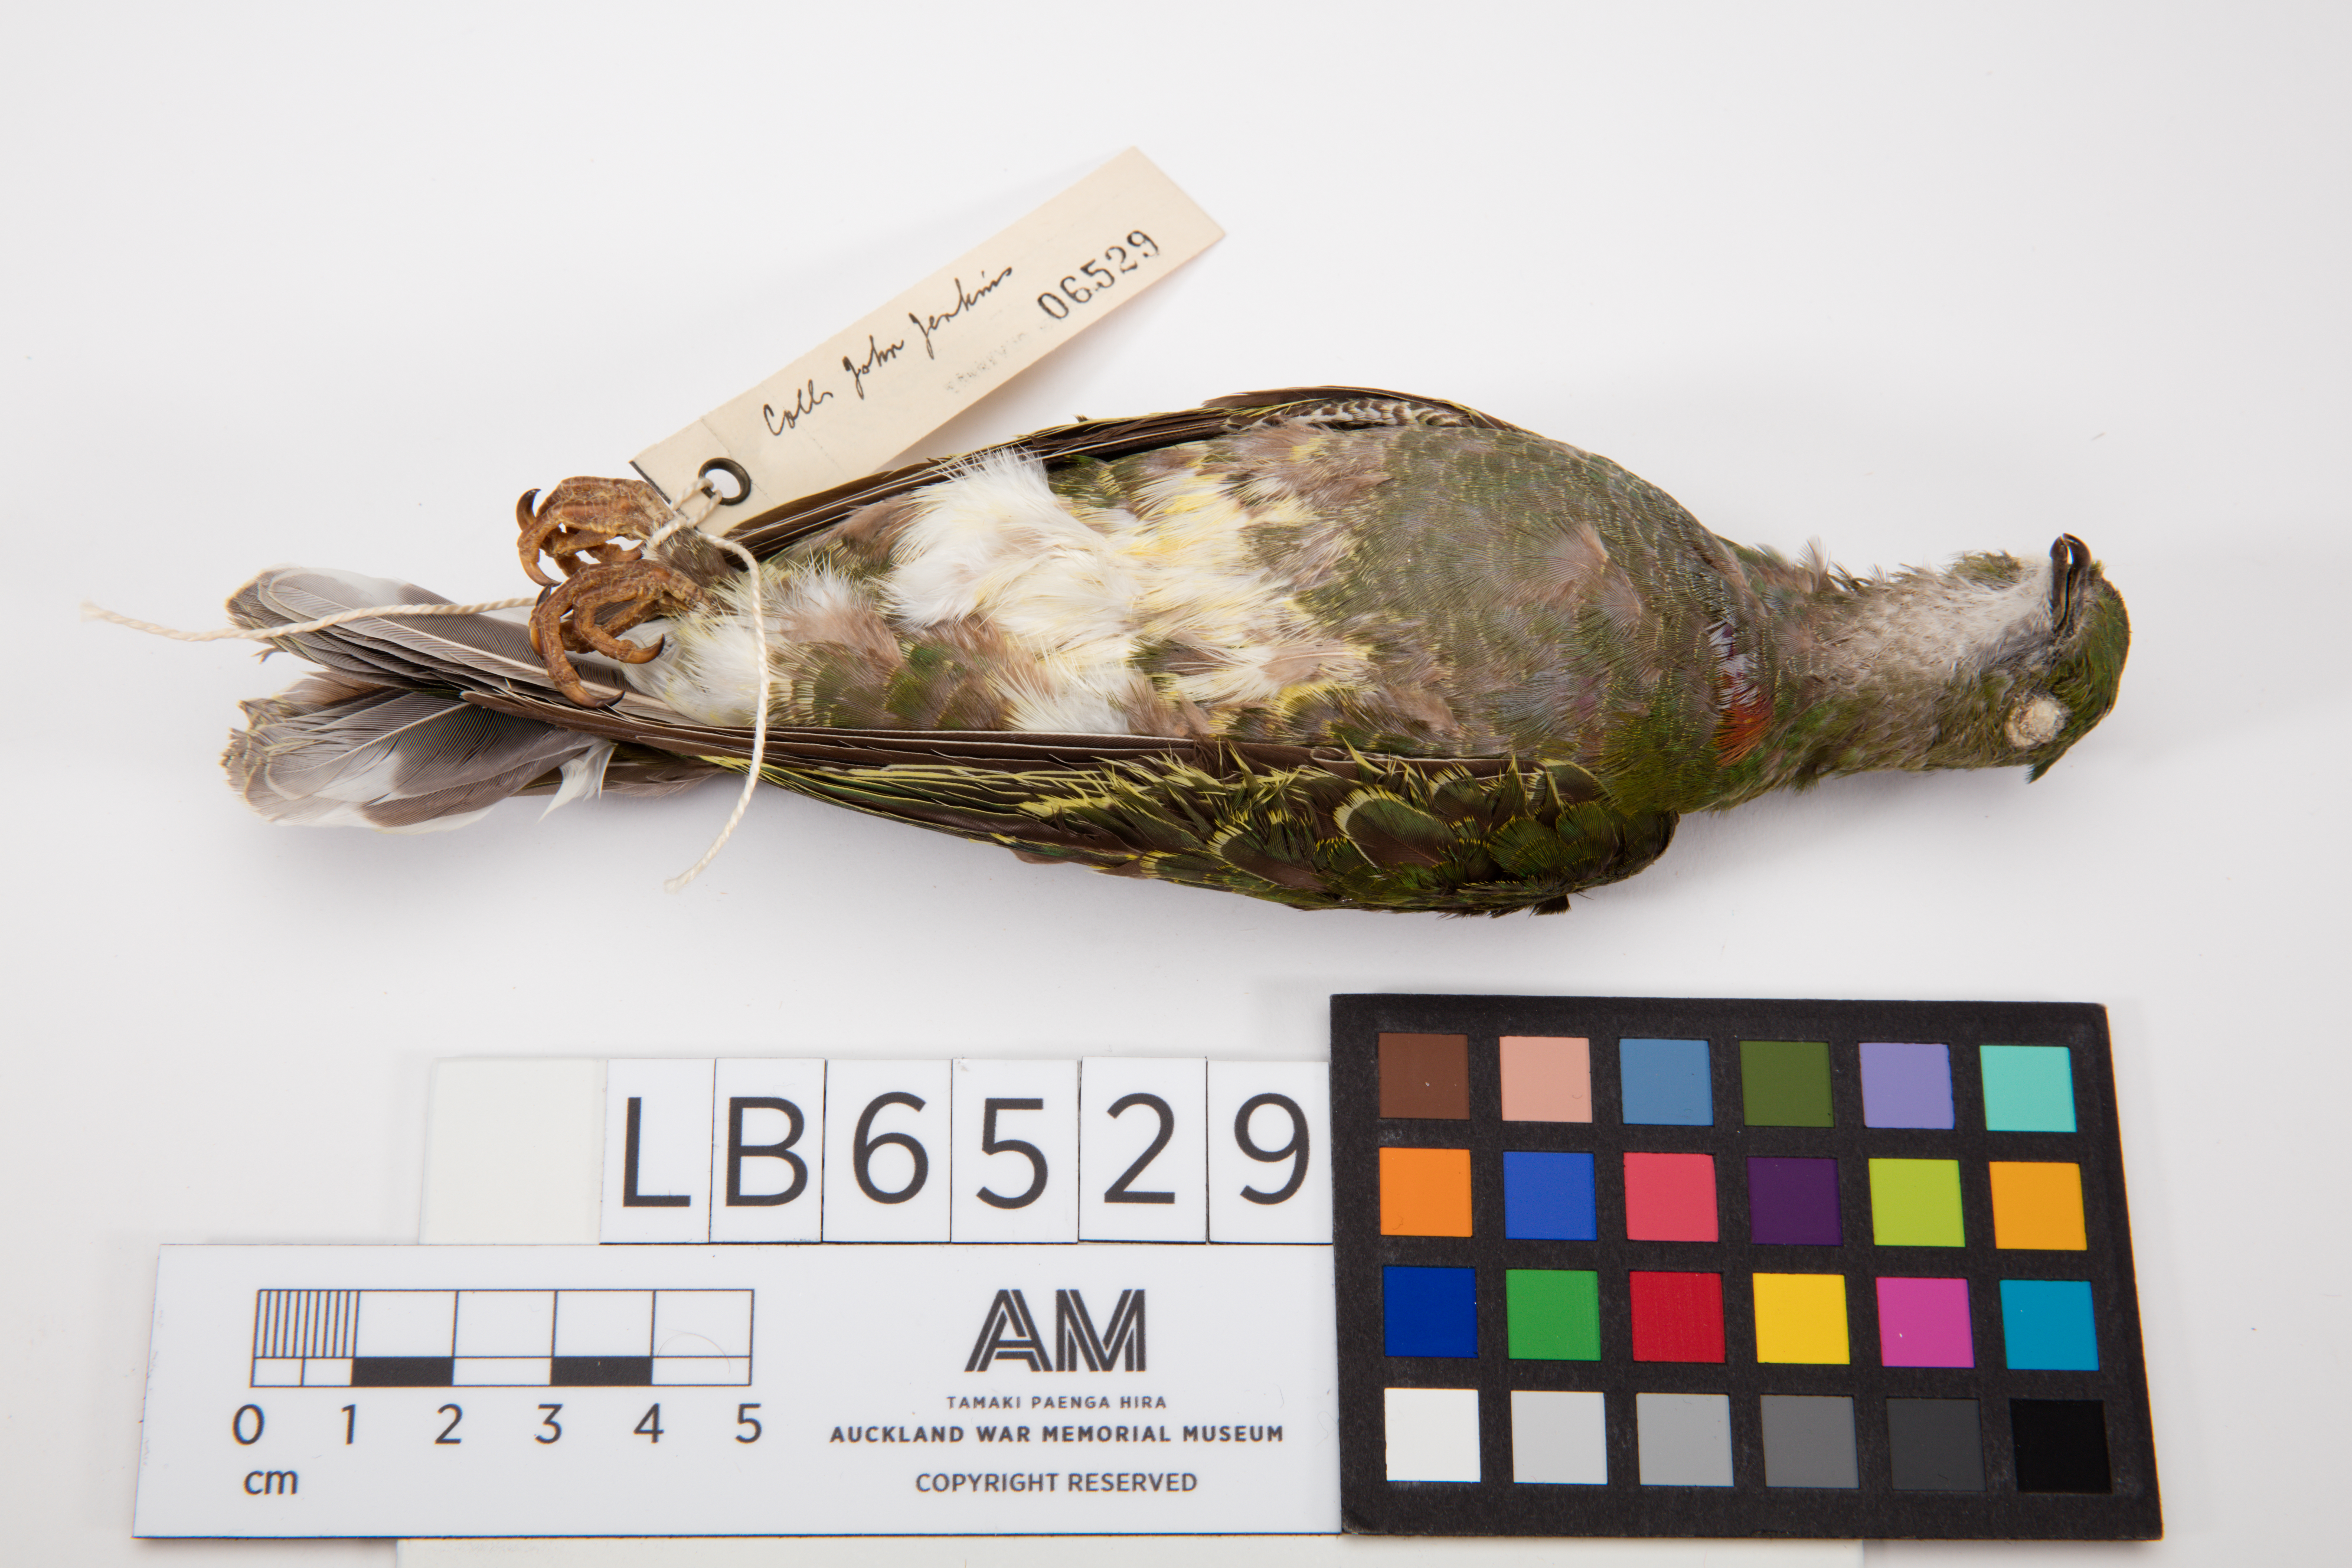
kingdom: Animalia
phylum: Chordata
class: Aves
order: Columbiformes
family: Columbidae
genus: Ptilinopus
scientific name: Ptilinopus viridis
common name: Claret-breasted fruit dove
